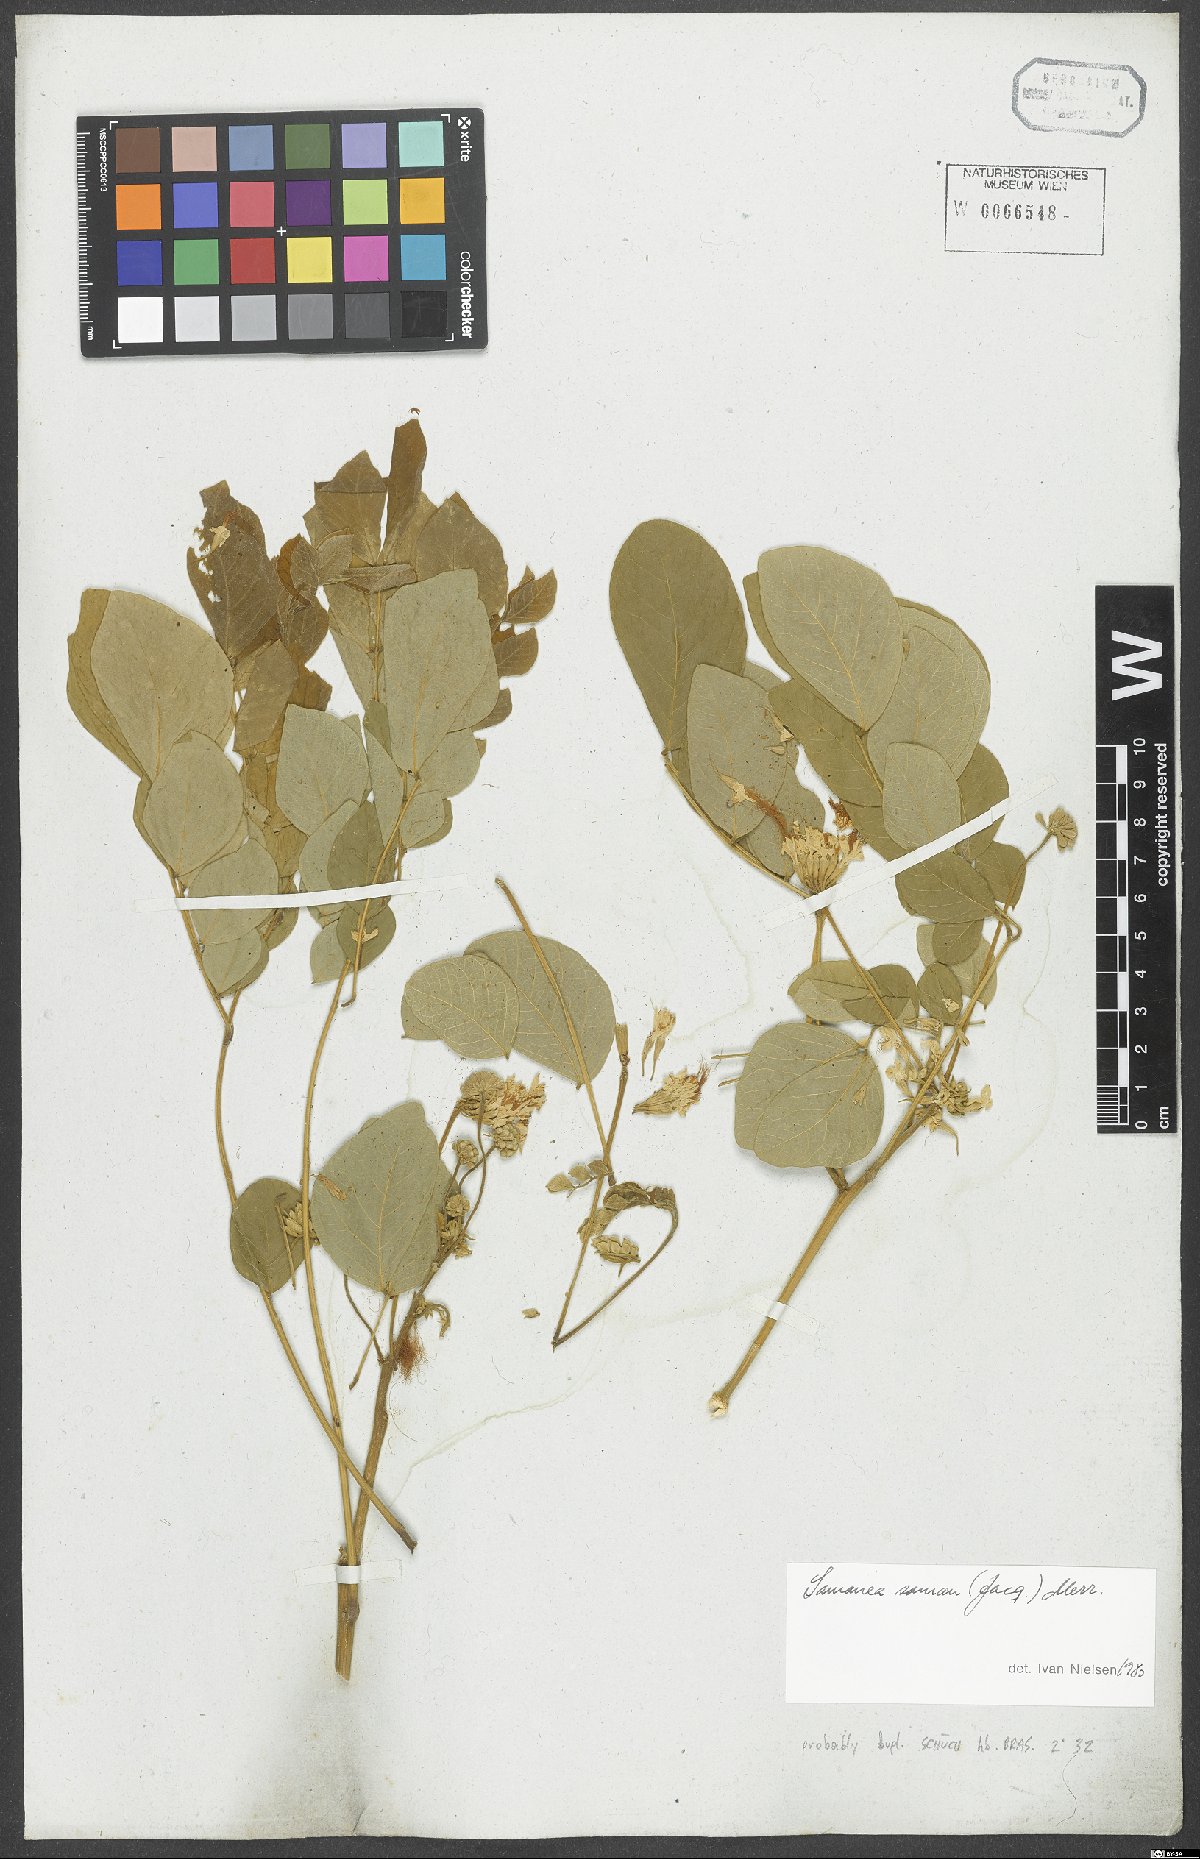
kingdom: Plantae
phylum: Tracheophyta
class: Magnoliopsida
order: Fabales
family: Fabaceae
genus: Samanea
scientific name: Samanea saman
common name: Raintree
